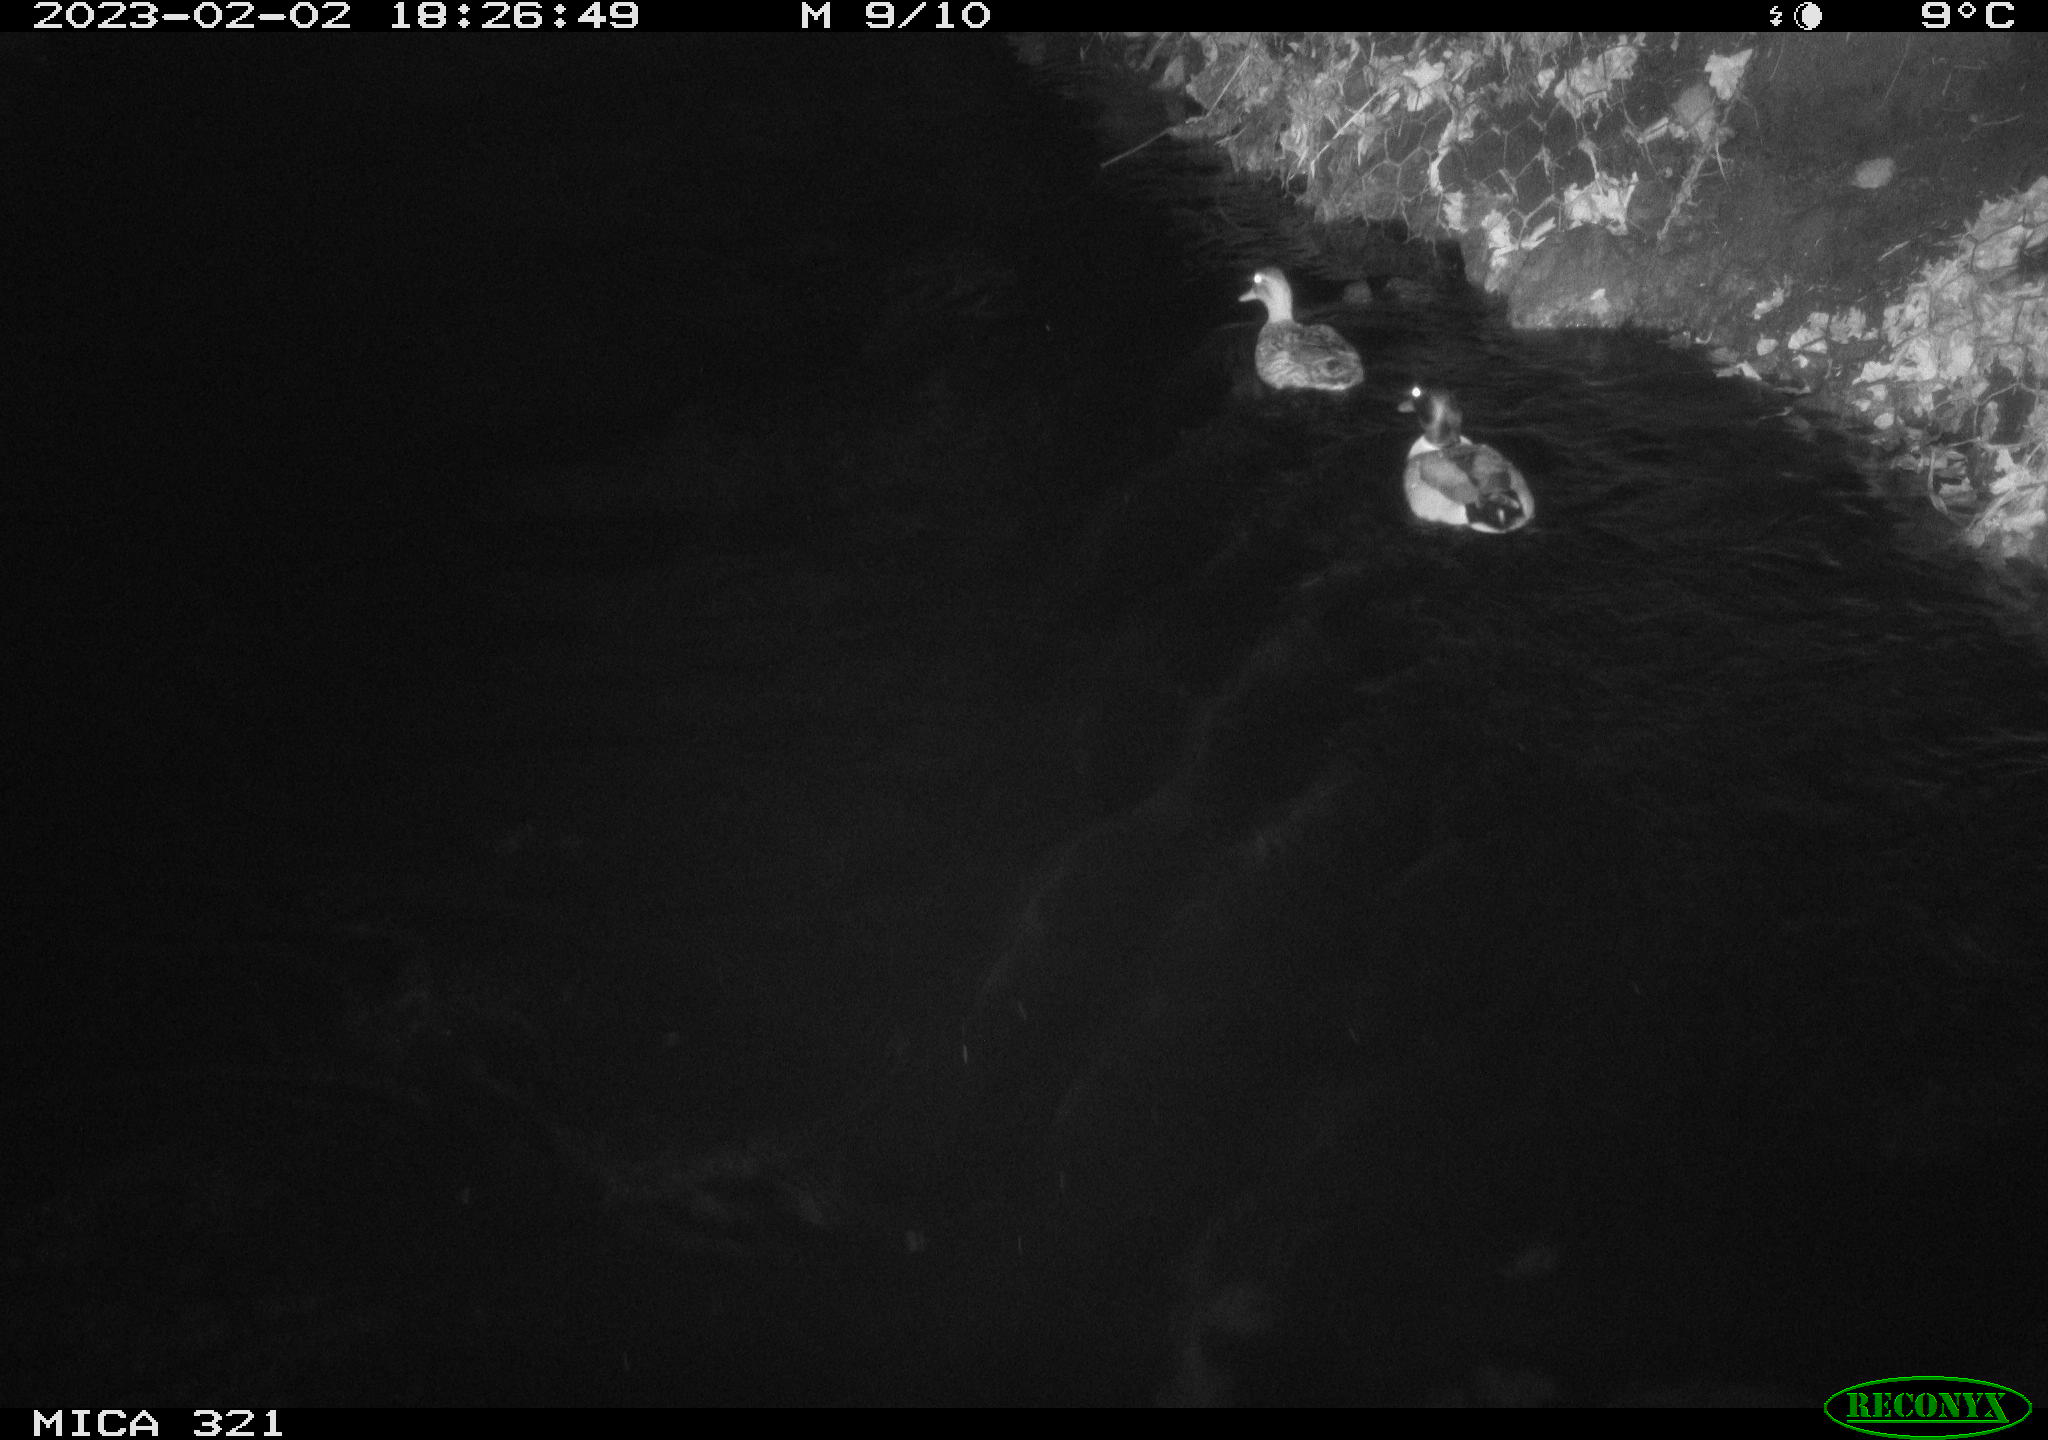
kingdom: Animalia
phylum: Chordata
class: Aves
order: Anseriformes
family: Anatidae
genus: Anas
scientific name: Anas
